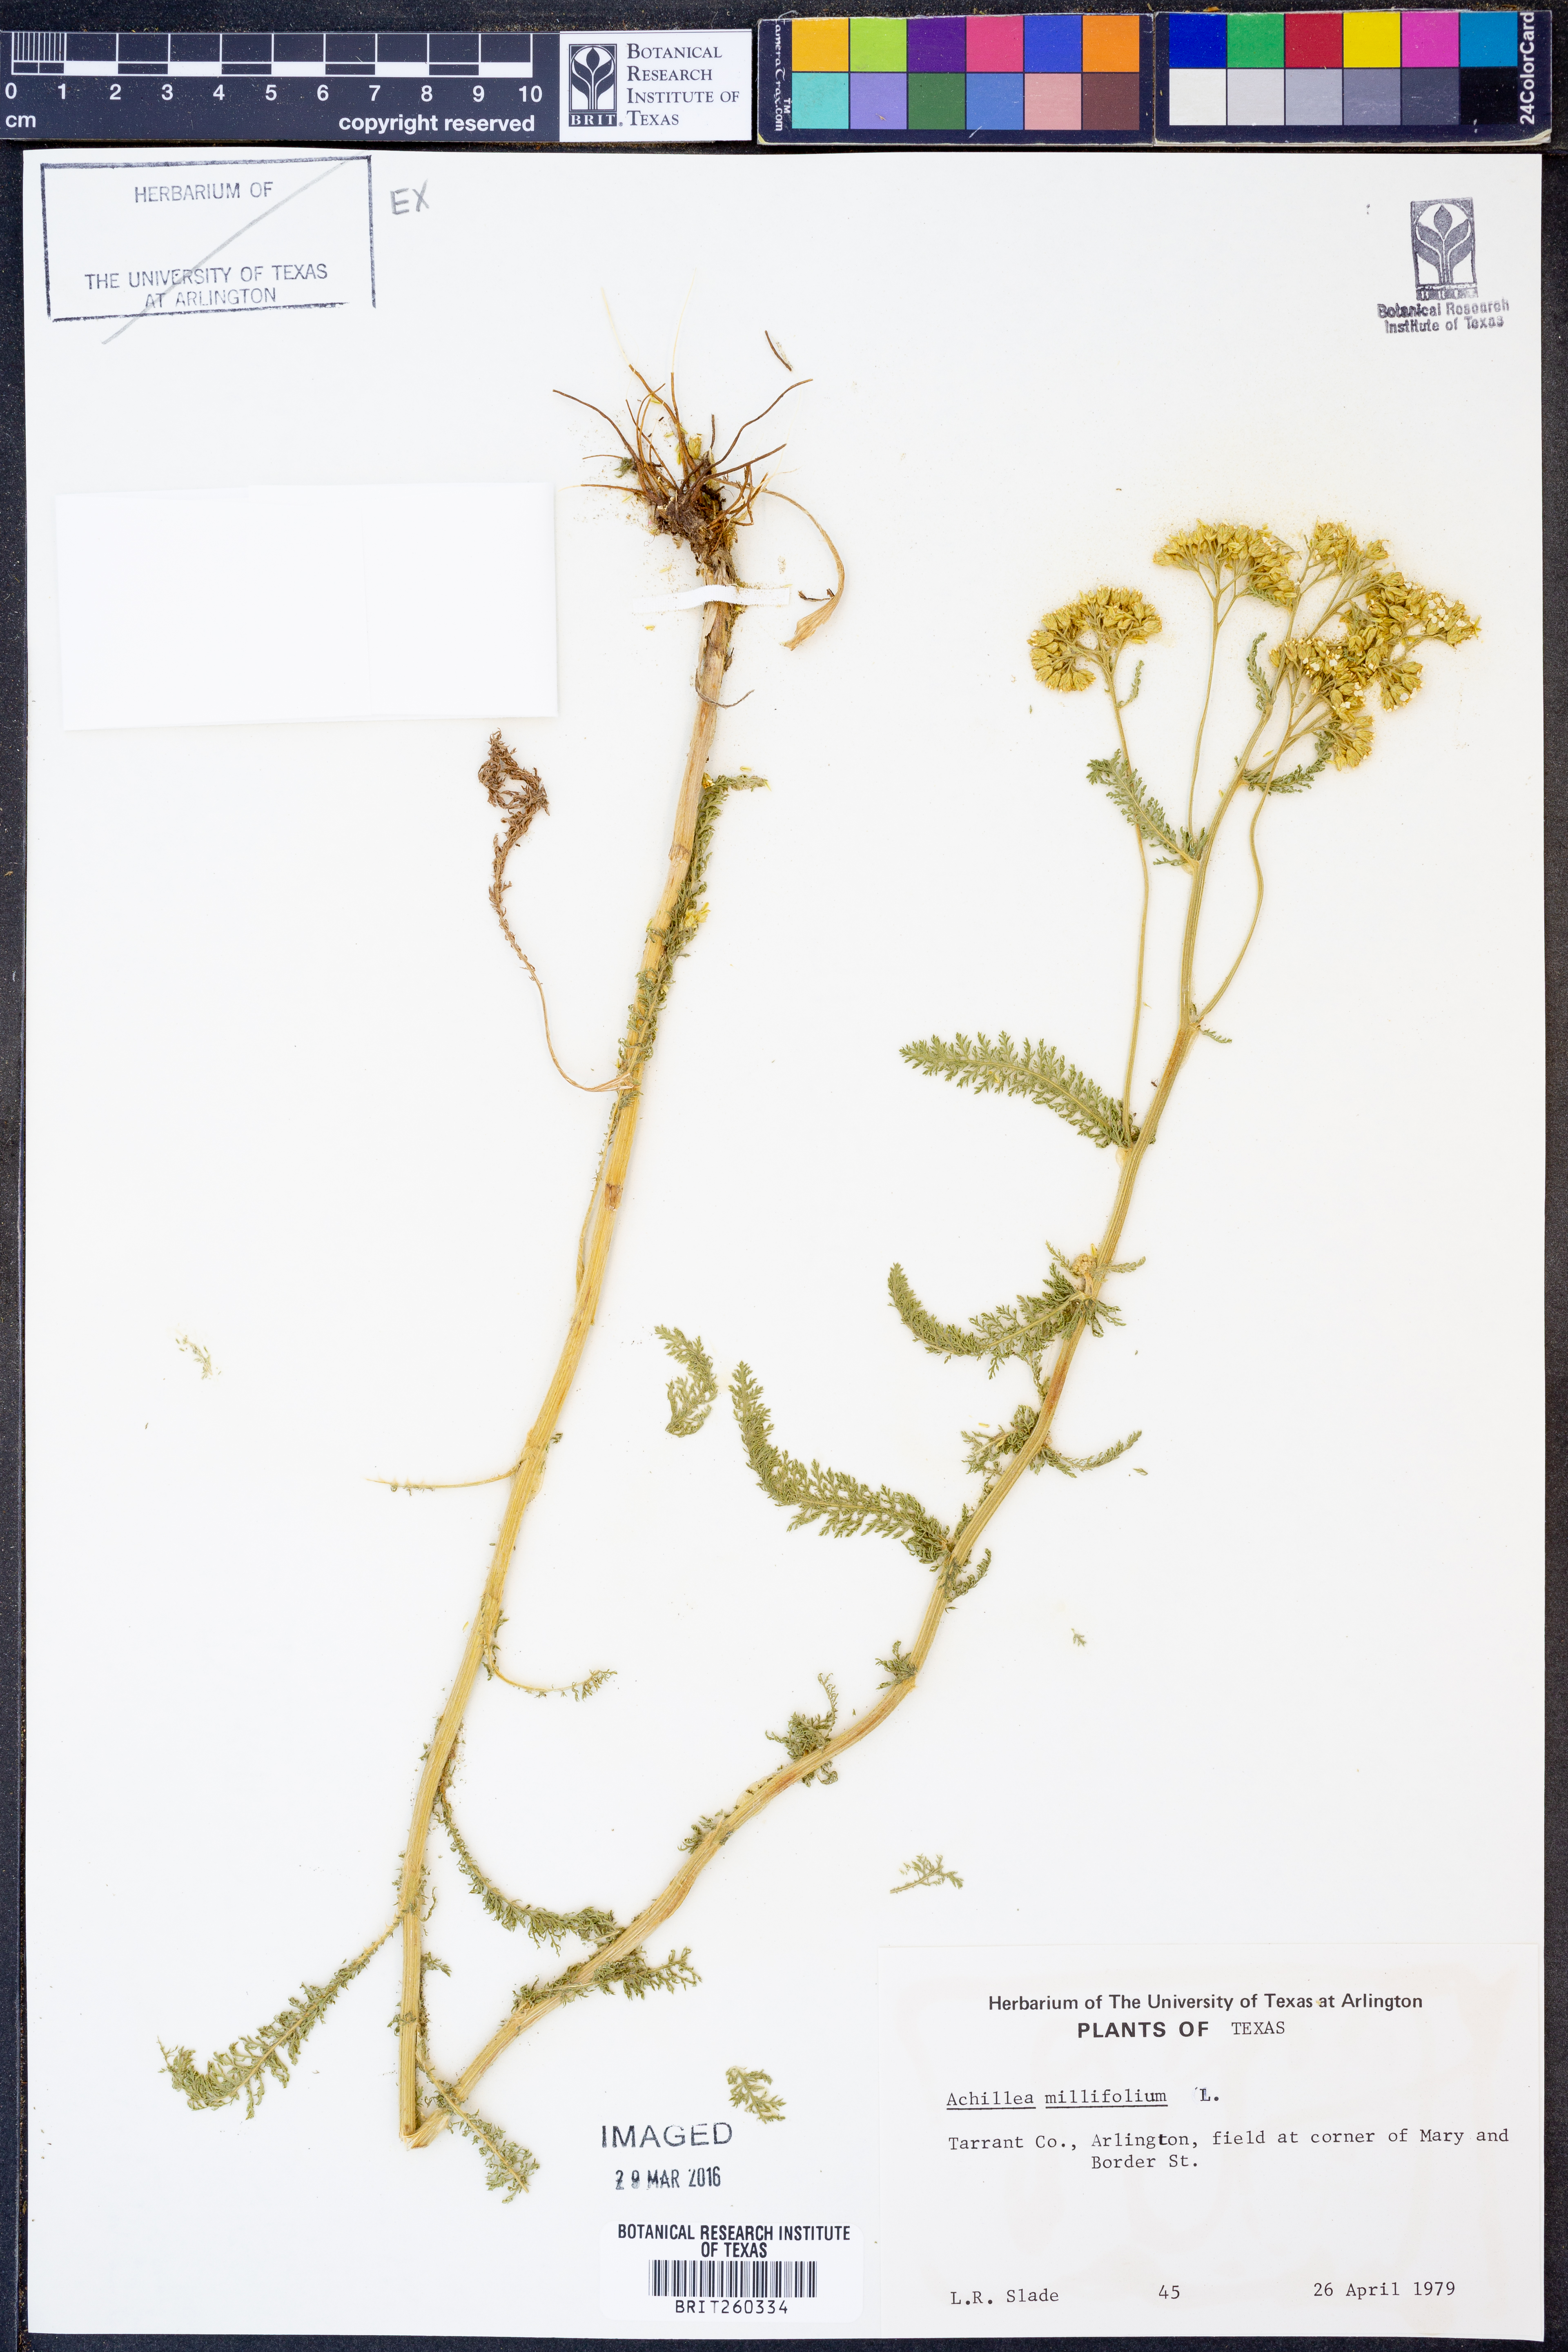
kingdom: Plantae
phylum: Tracheophyta
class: Magnoliopsida
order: Asterales
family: Asteraceae
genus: Achillea
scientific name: Achillea millefolium
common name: Yarrow
